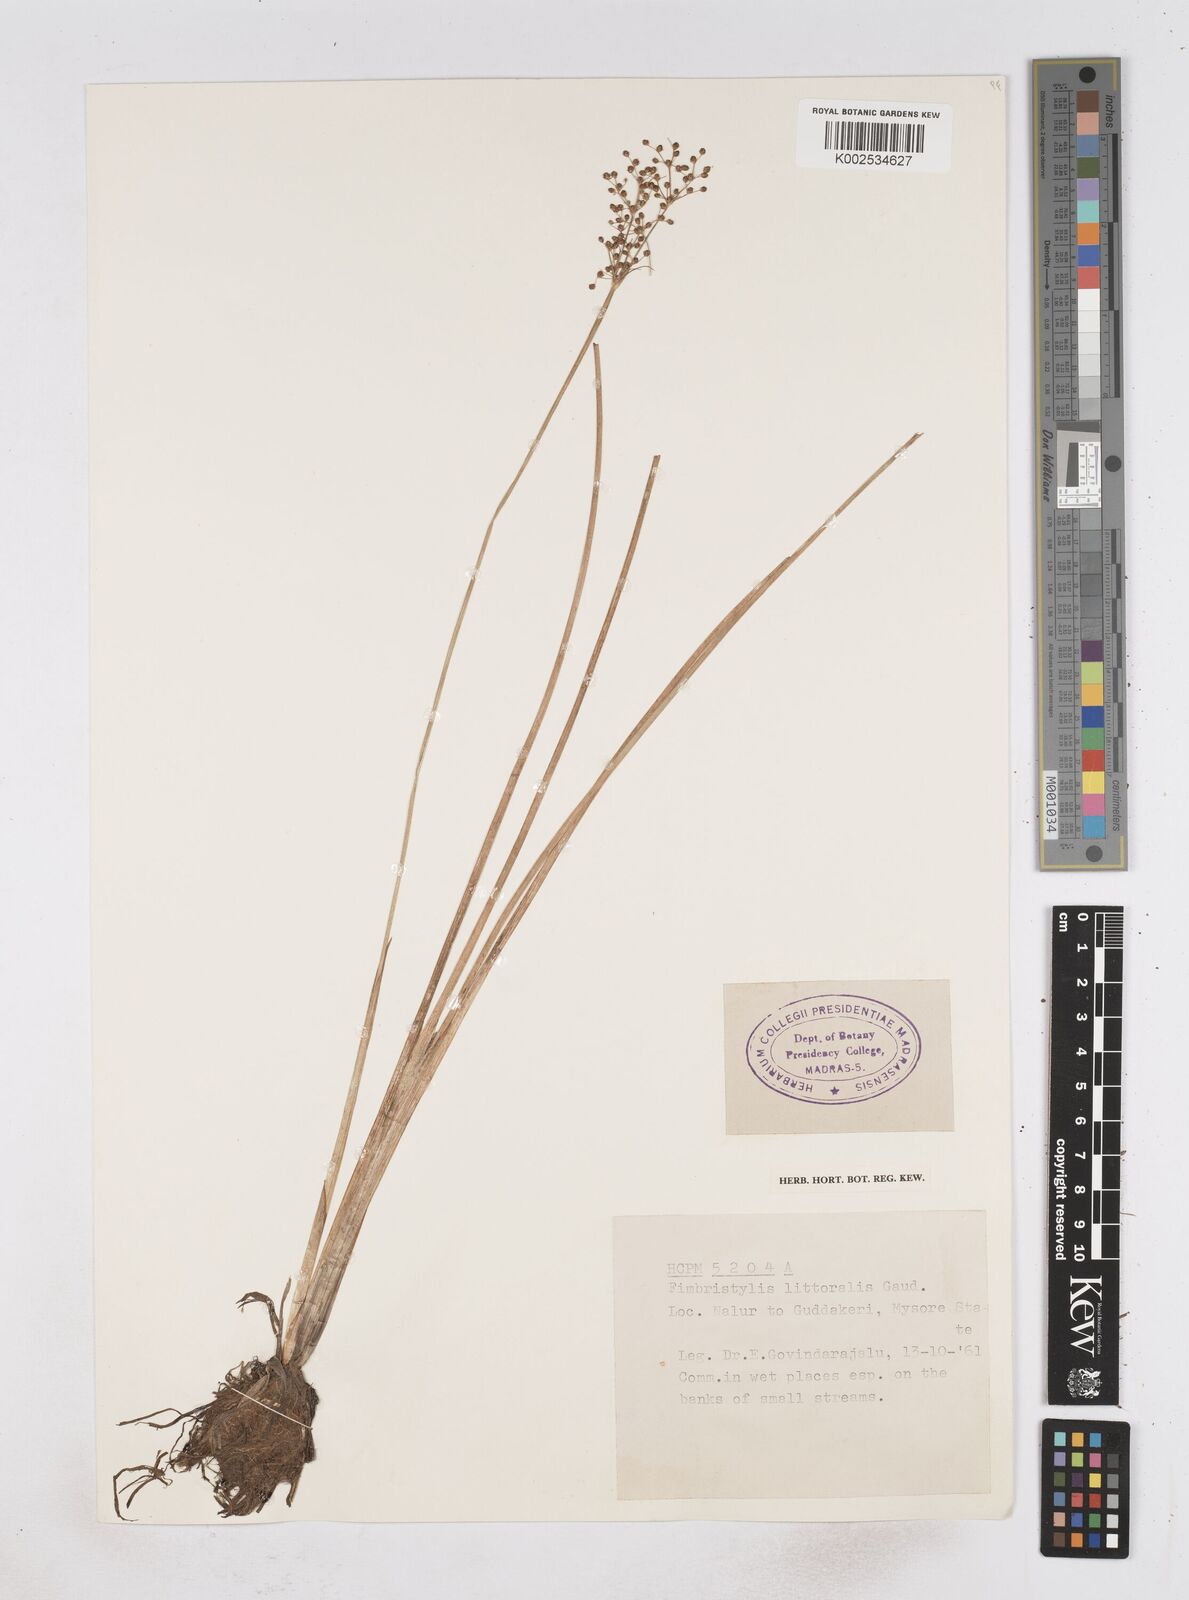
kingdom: Plantae
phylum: Tracheophyta
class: Liliopsida
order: Poales
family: Cyperaceae
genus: Fimbristylis
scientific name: Fimbristylis littoralis
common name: Fimbry
